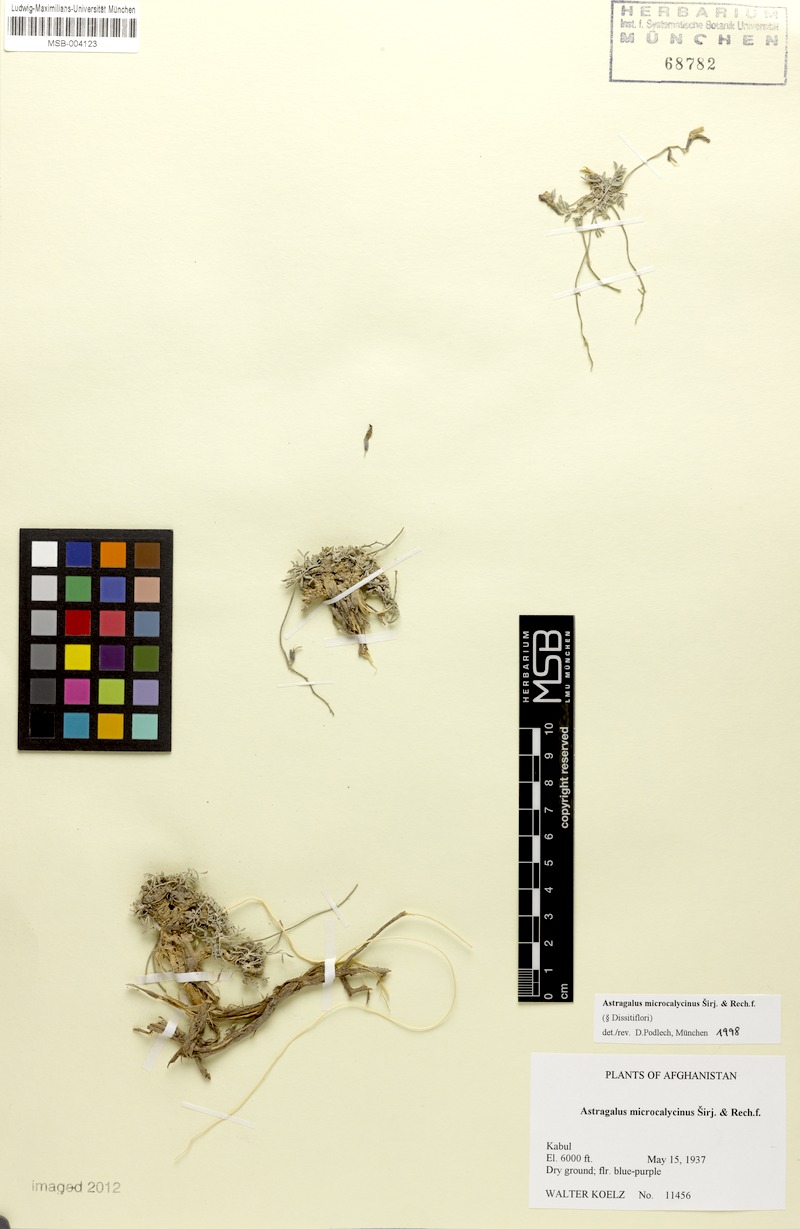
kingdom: Plantae
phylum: Tracheophyta
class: Magnoliopsida
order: Fabales
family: Fabaceae
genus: Astragalus
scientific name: Astragalus microcalycinus
